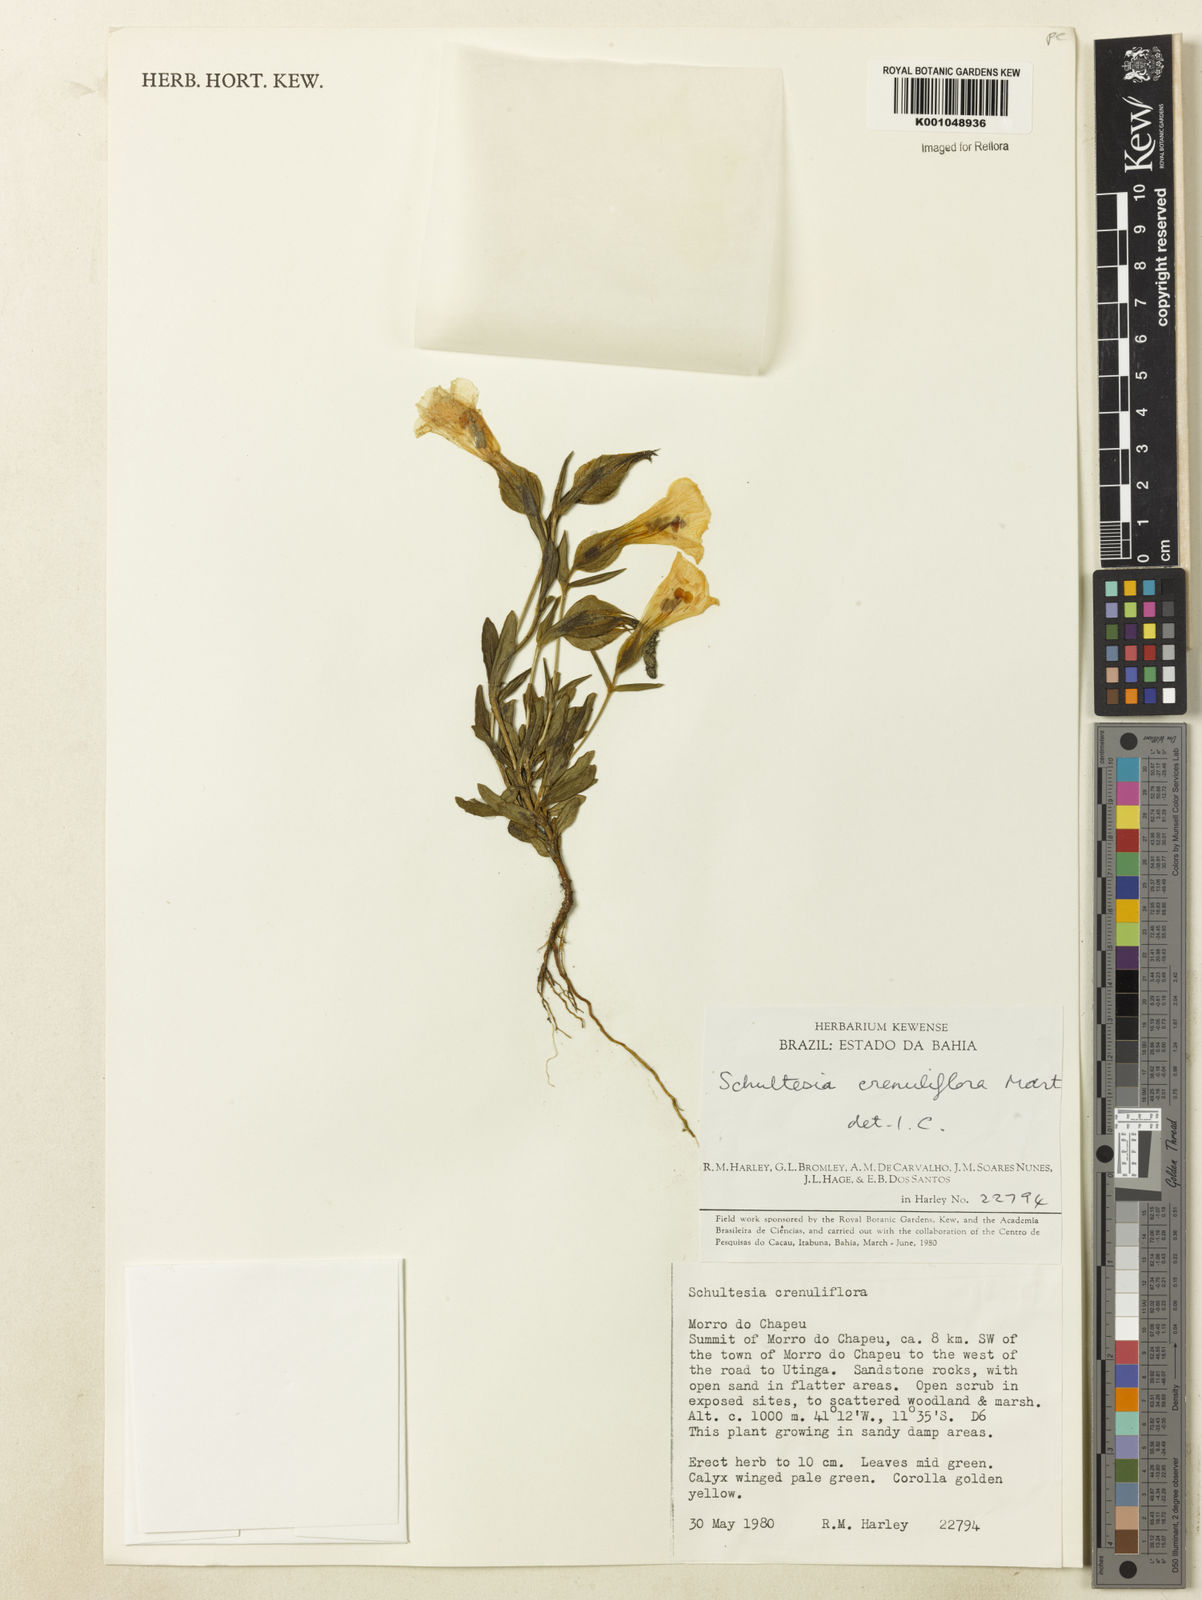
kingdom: Plantae
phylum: Tracheophyta
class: Magnoliopsida
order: Gentianales
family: Gentianaceae
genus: Schultesia
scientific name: Schultesia crenuliflora
